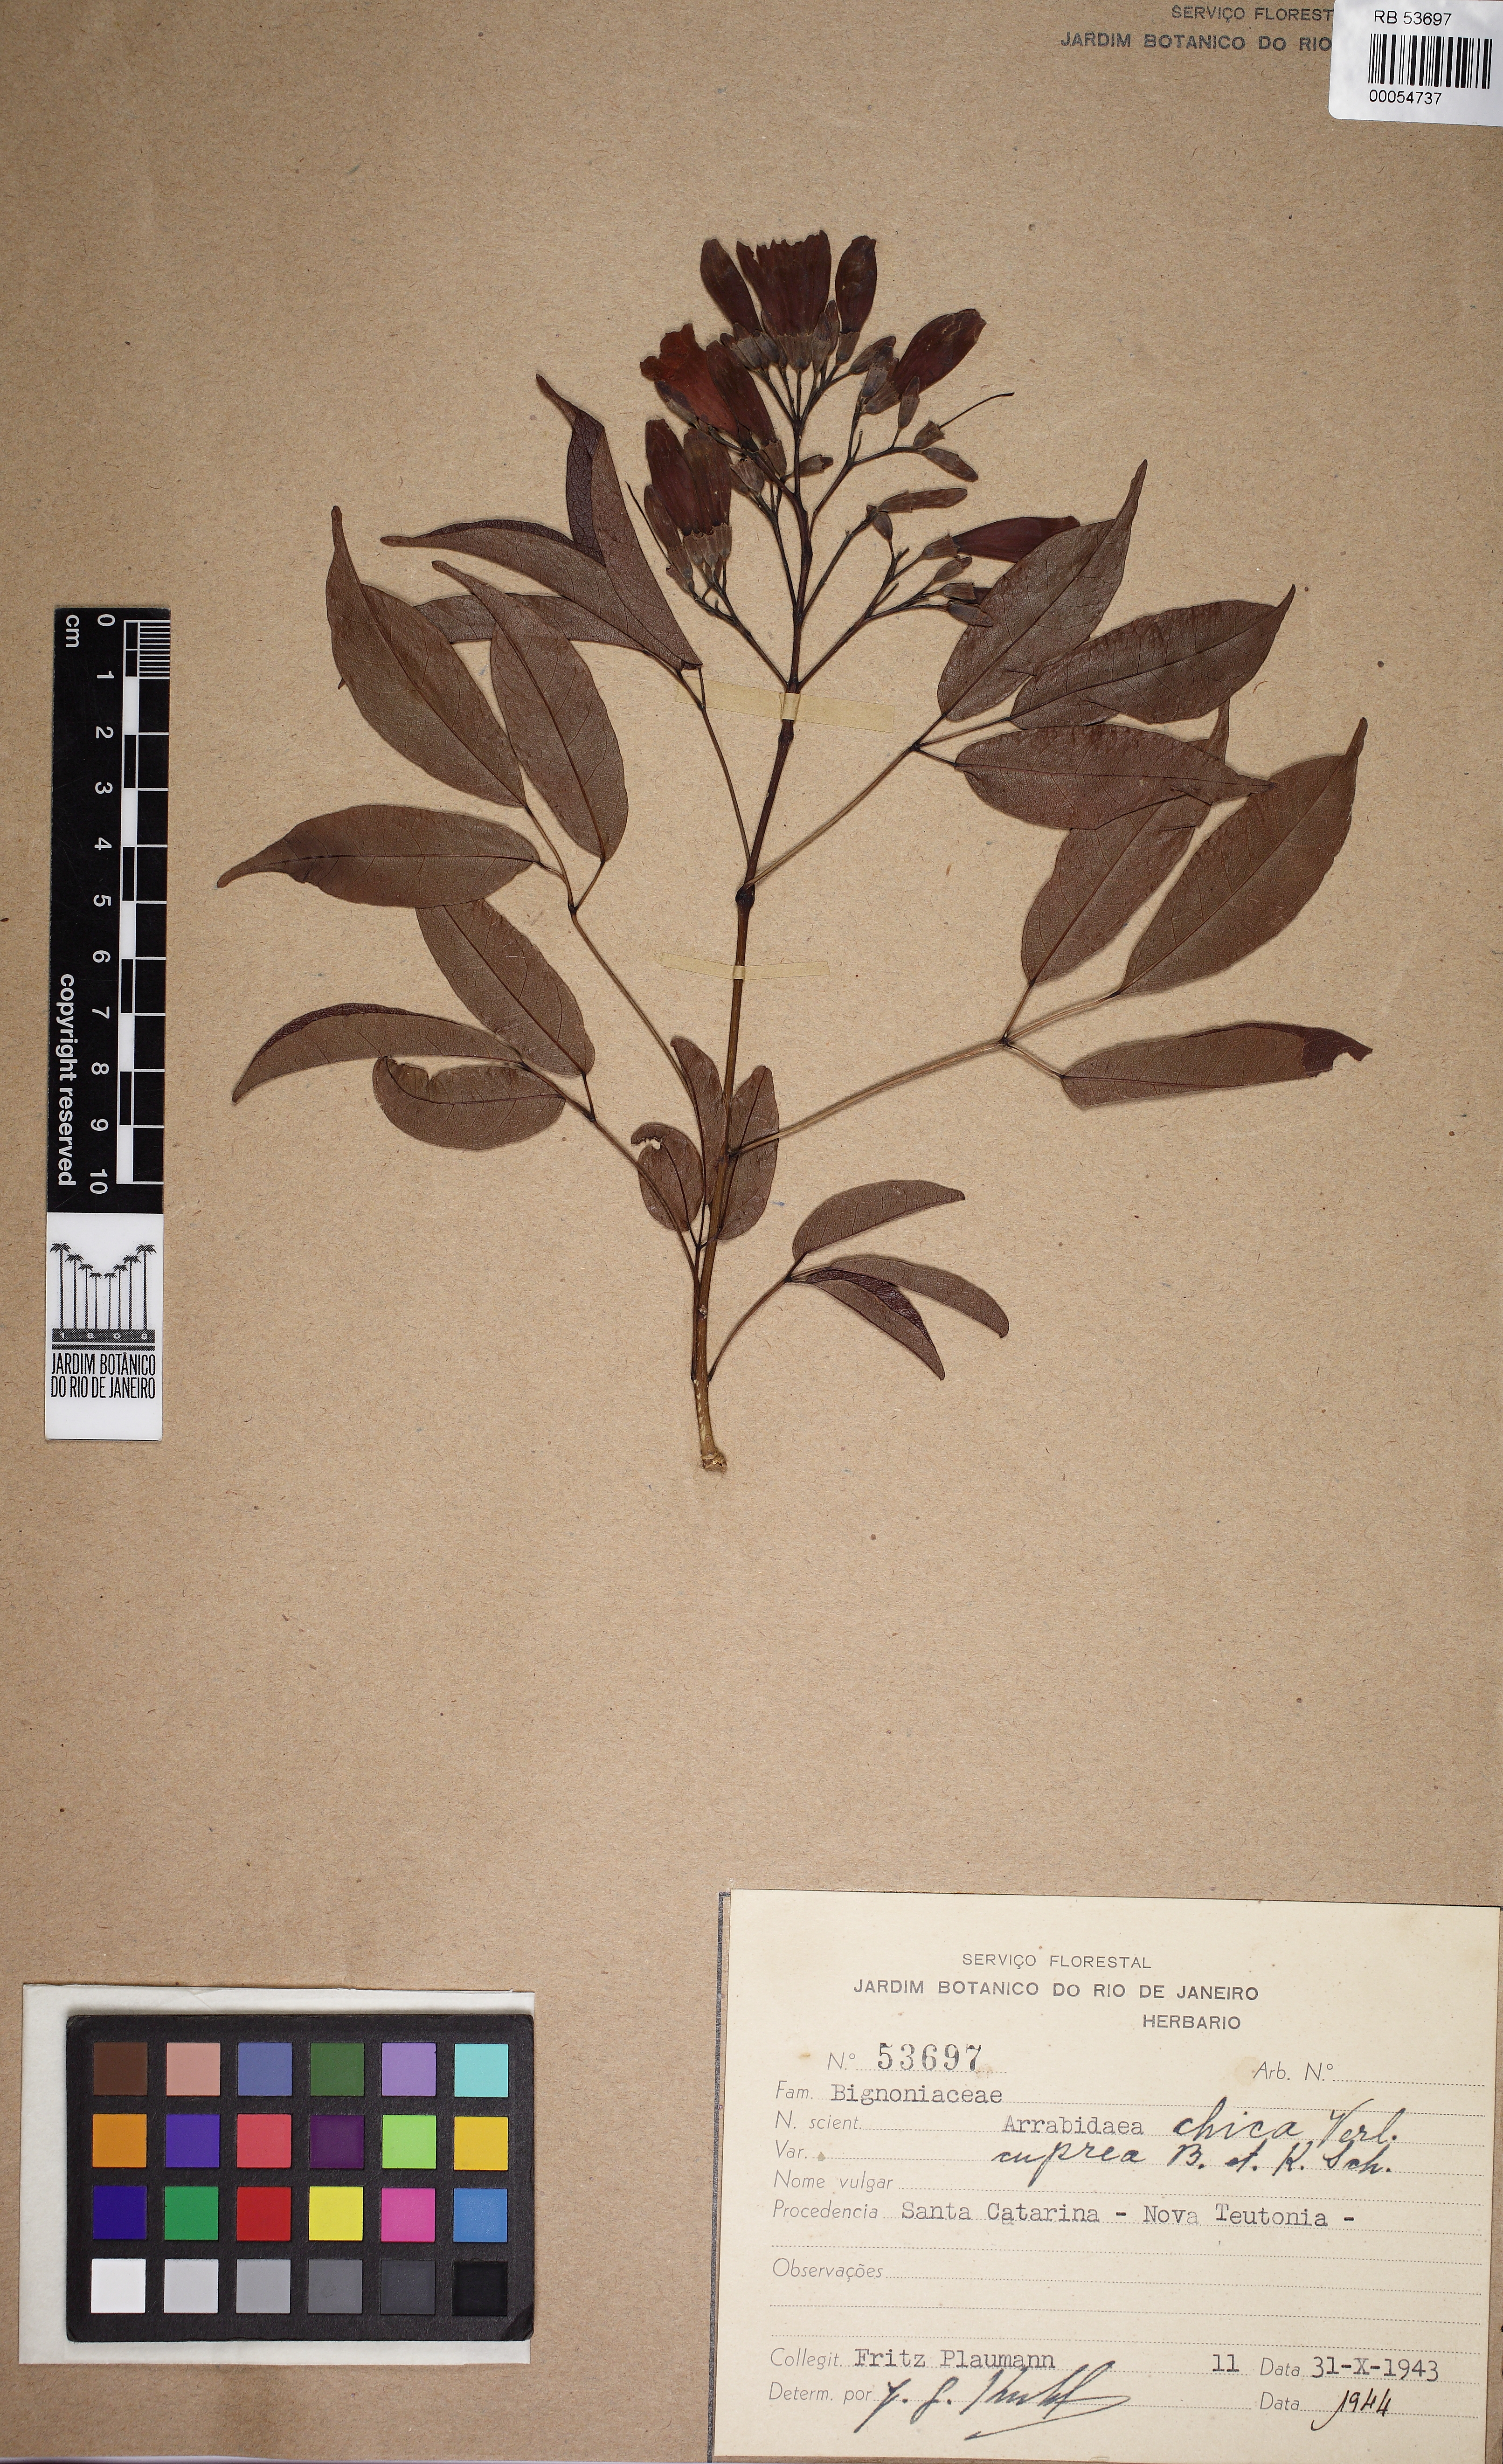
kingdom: Plantae
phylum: Tracheophyta
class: Magnoliopsida
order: Lamiales
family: Bignoniaceae
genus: Fridericia
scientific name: Fridericia chica
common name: Cricketvine
